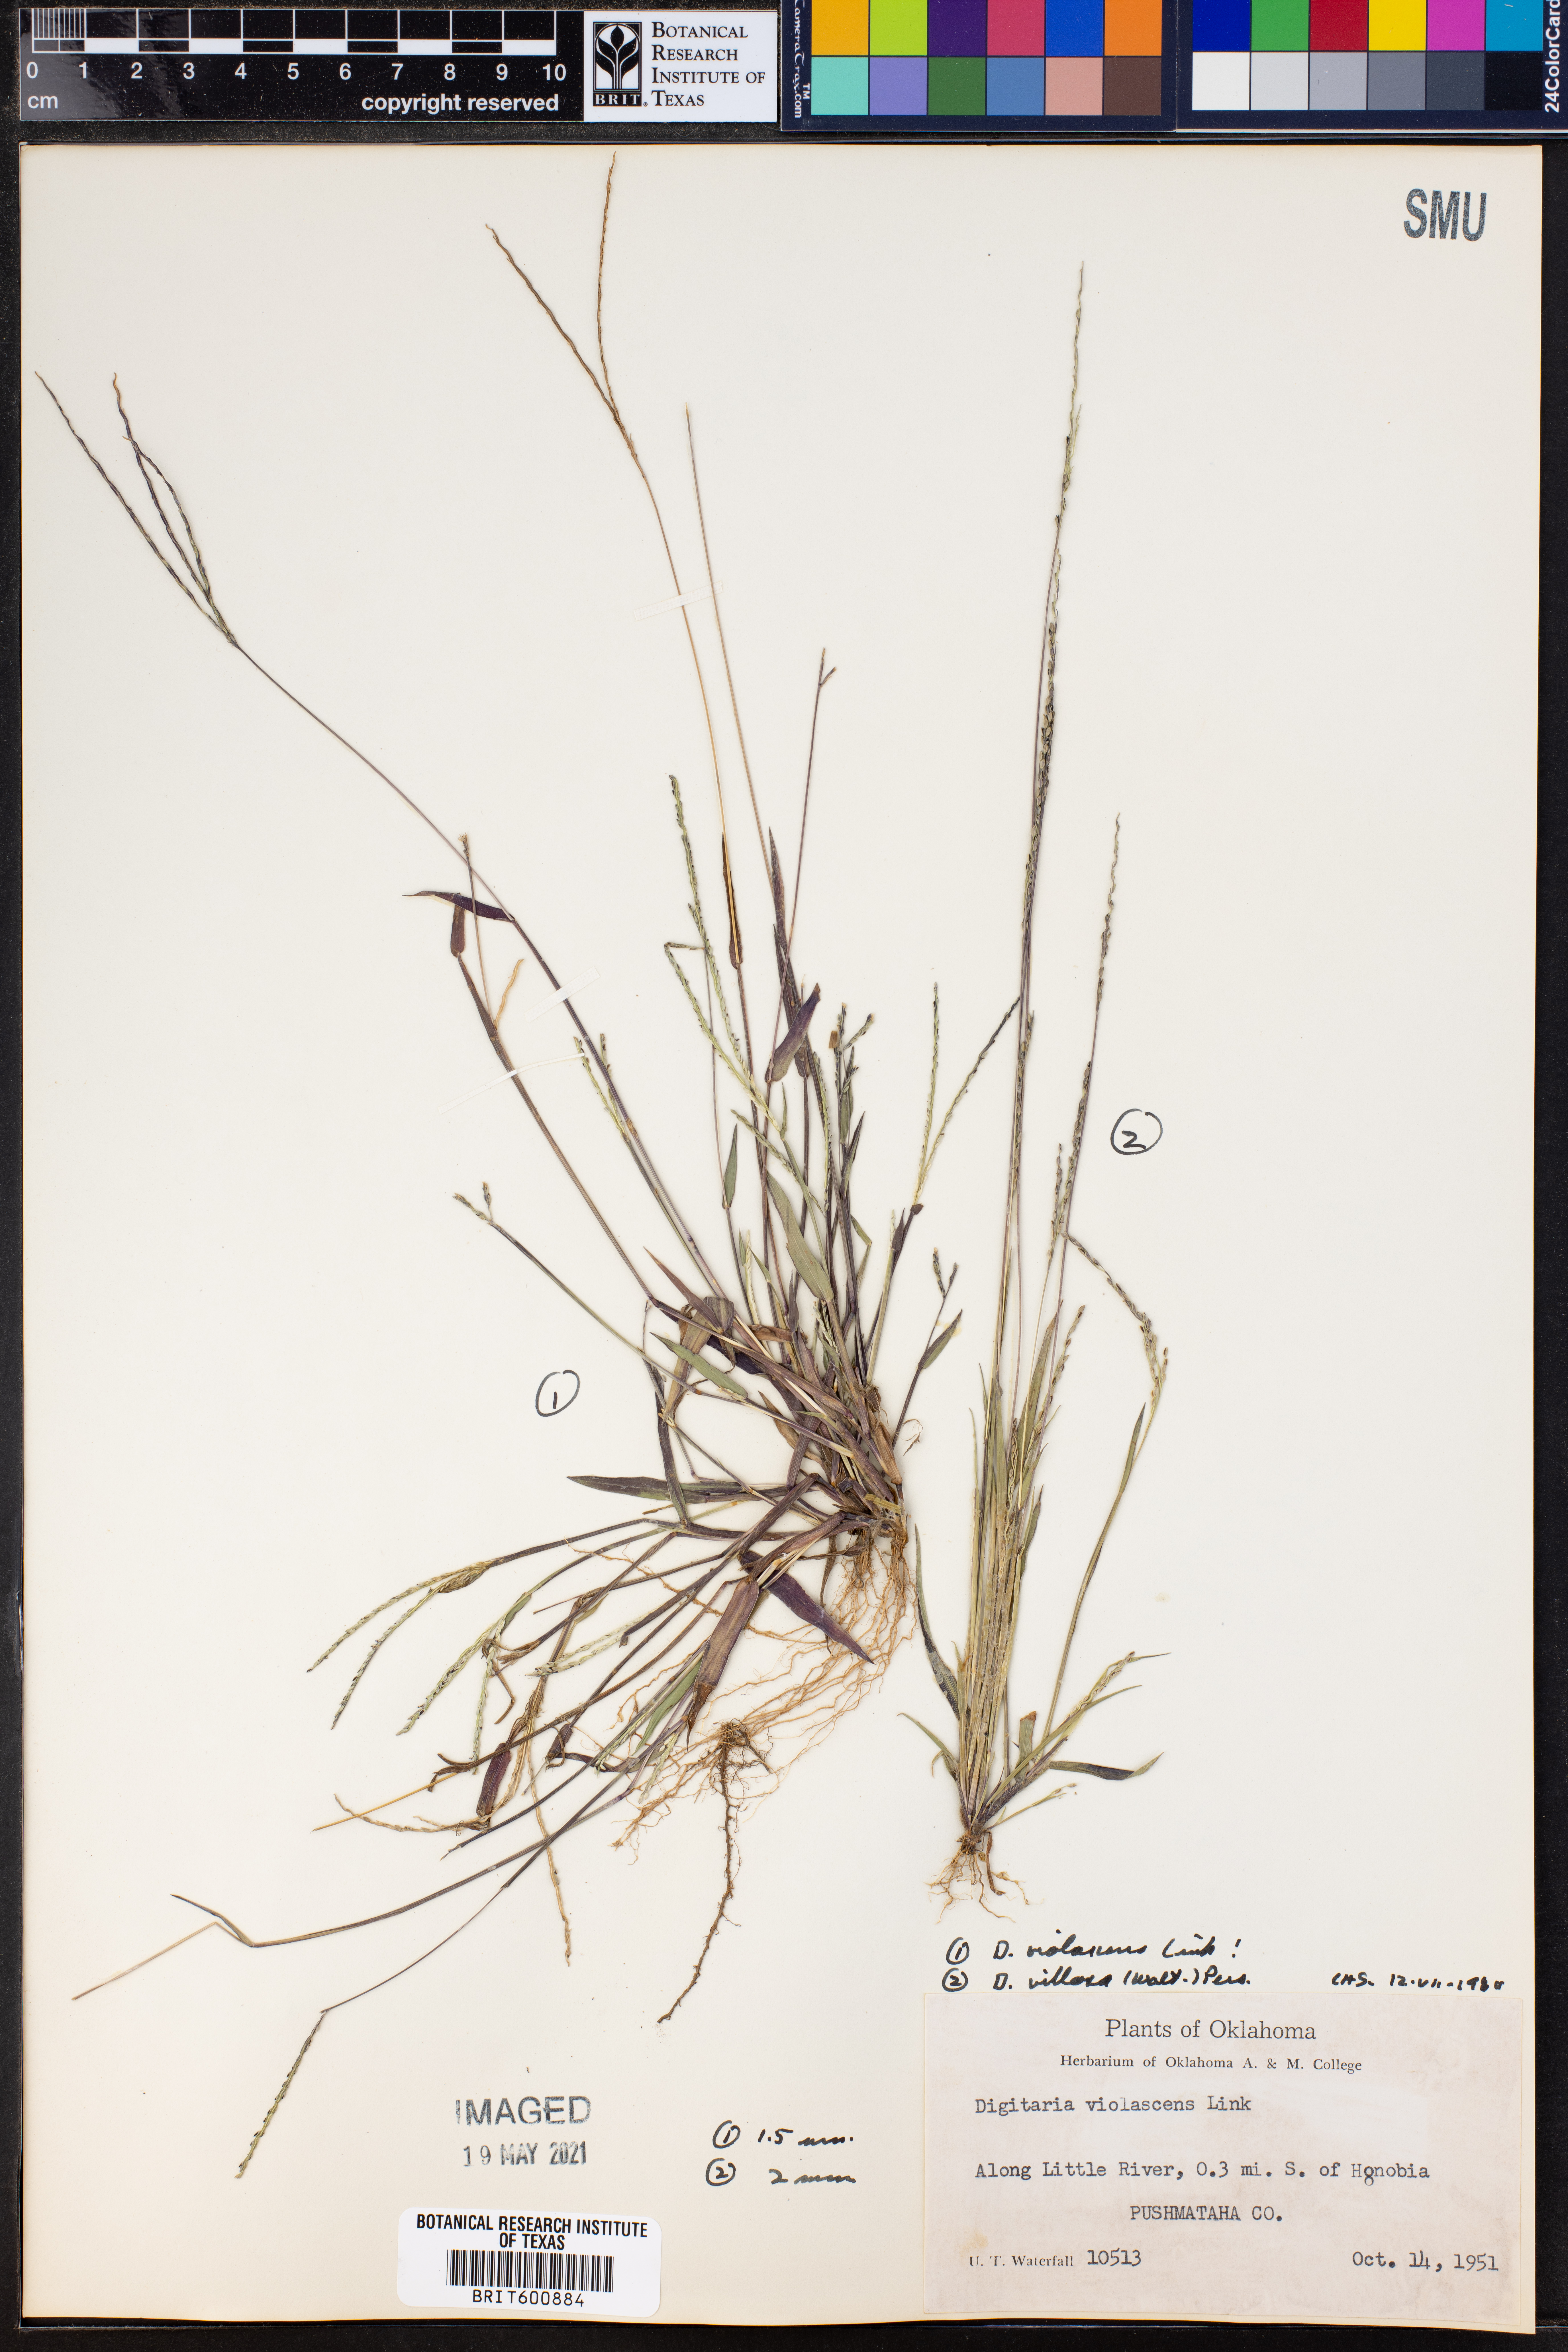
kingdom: Plantae
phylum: Tracheophyta
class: Liliopsida
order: Poales
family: Poaceae
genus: Digitaria
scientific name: Digitaria violascens
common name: Violet crabgrass
